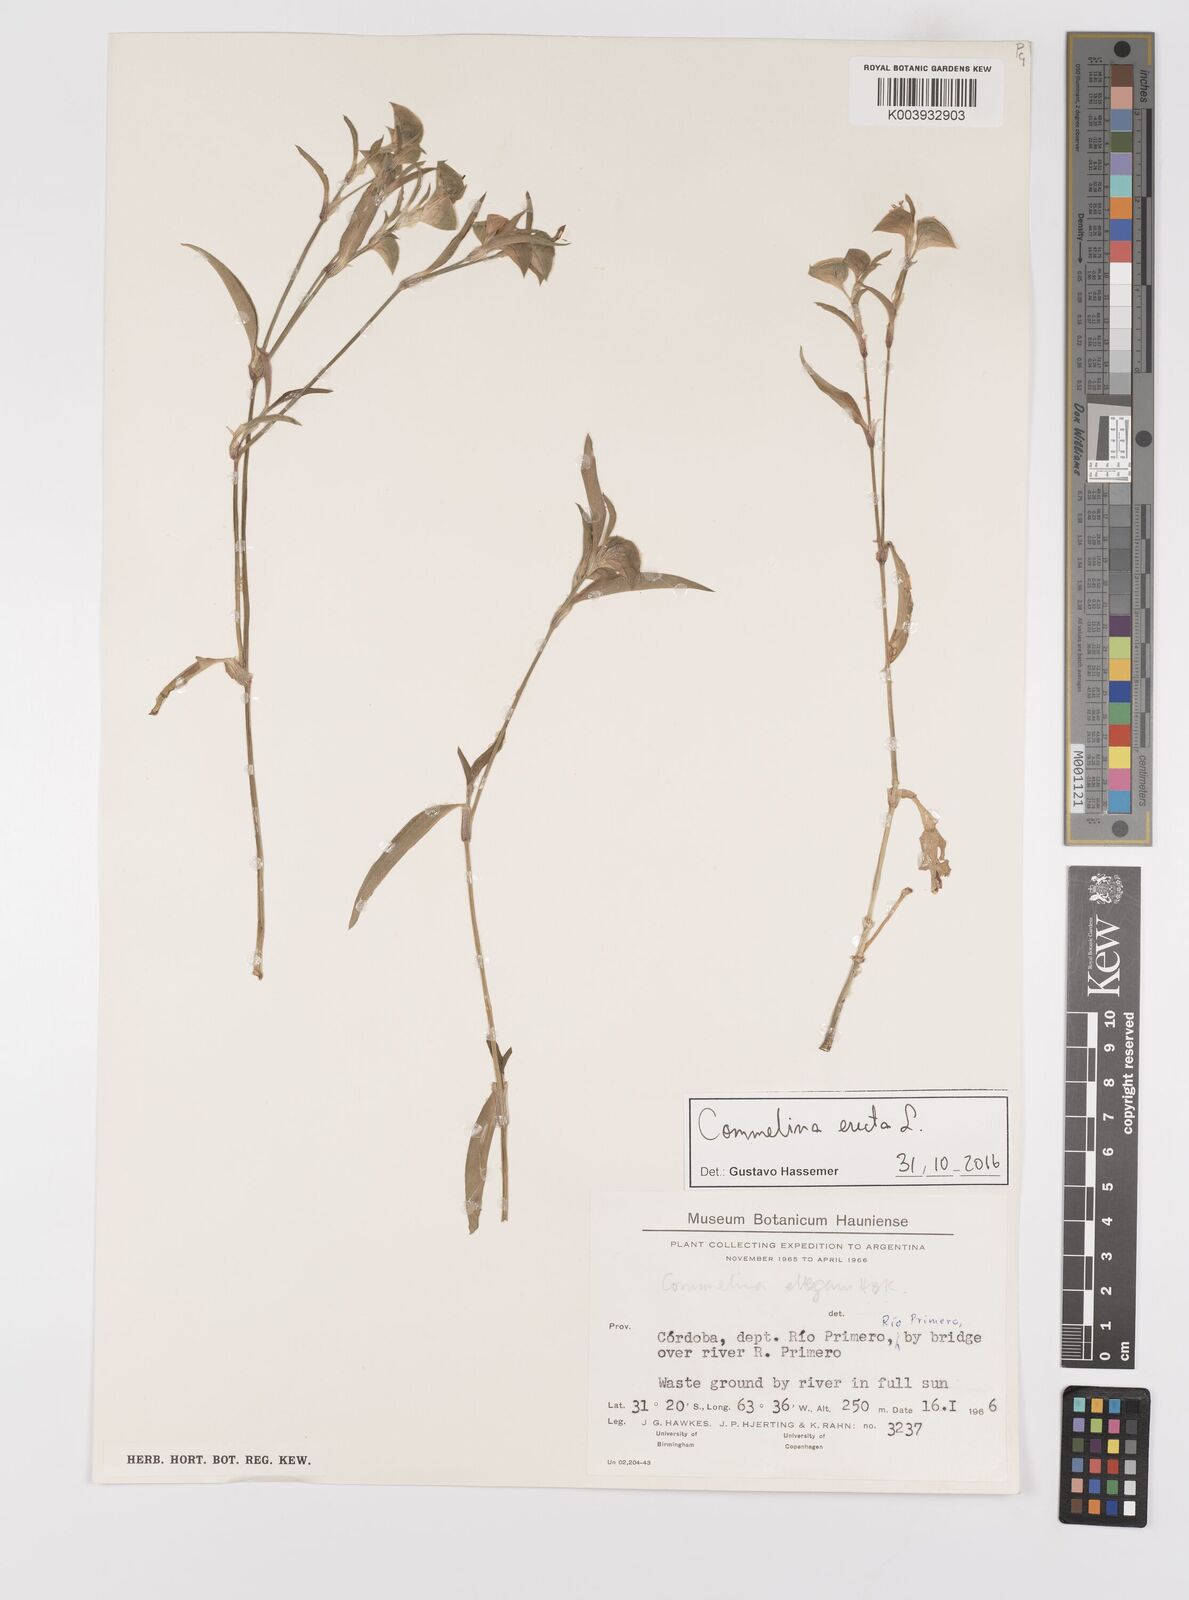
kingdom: Plantae
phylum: Tracheophyta
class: Liliopsida
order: Commelinales
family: Commelinaceae
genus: Commelina
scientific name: Commelina erecta
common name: Blousel blommetjie
